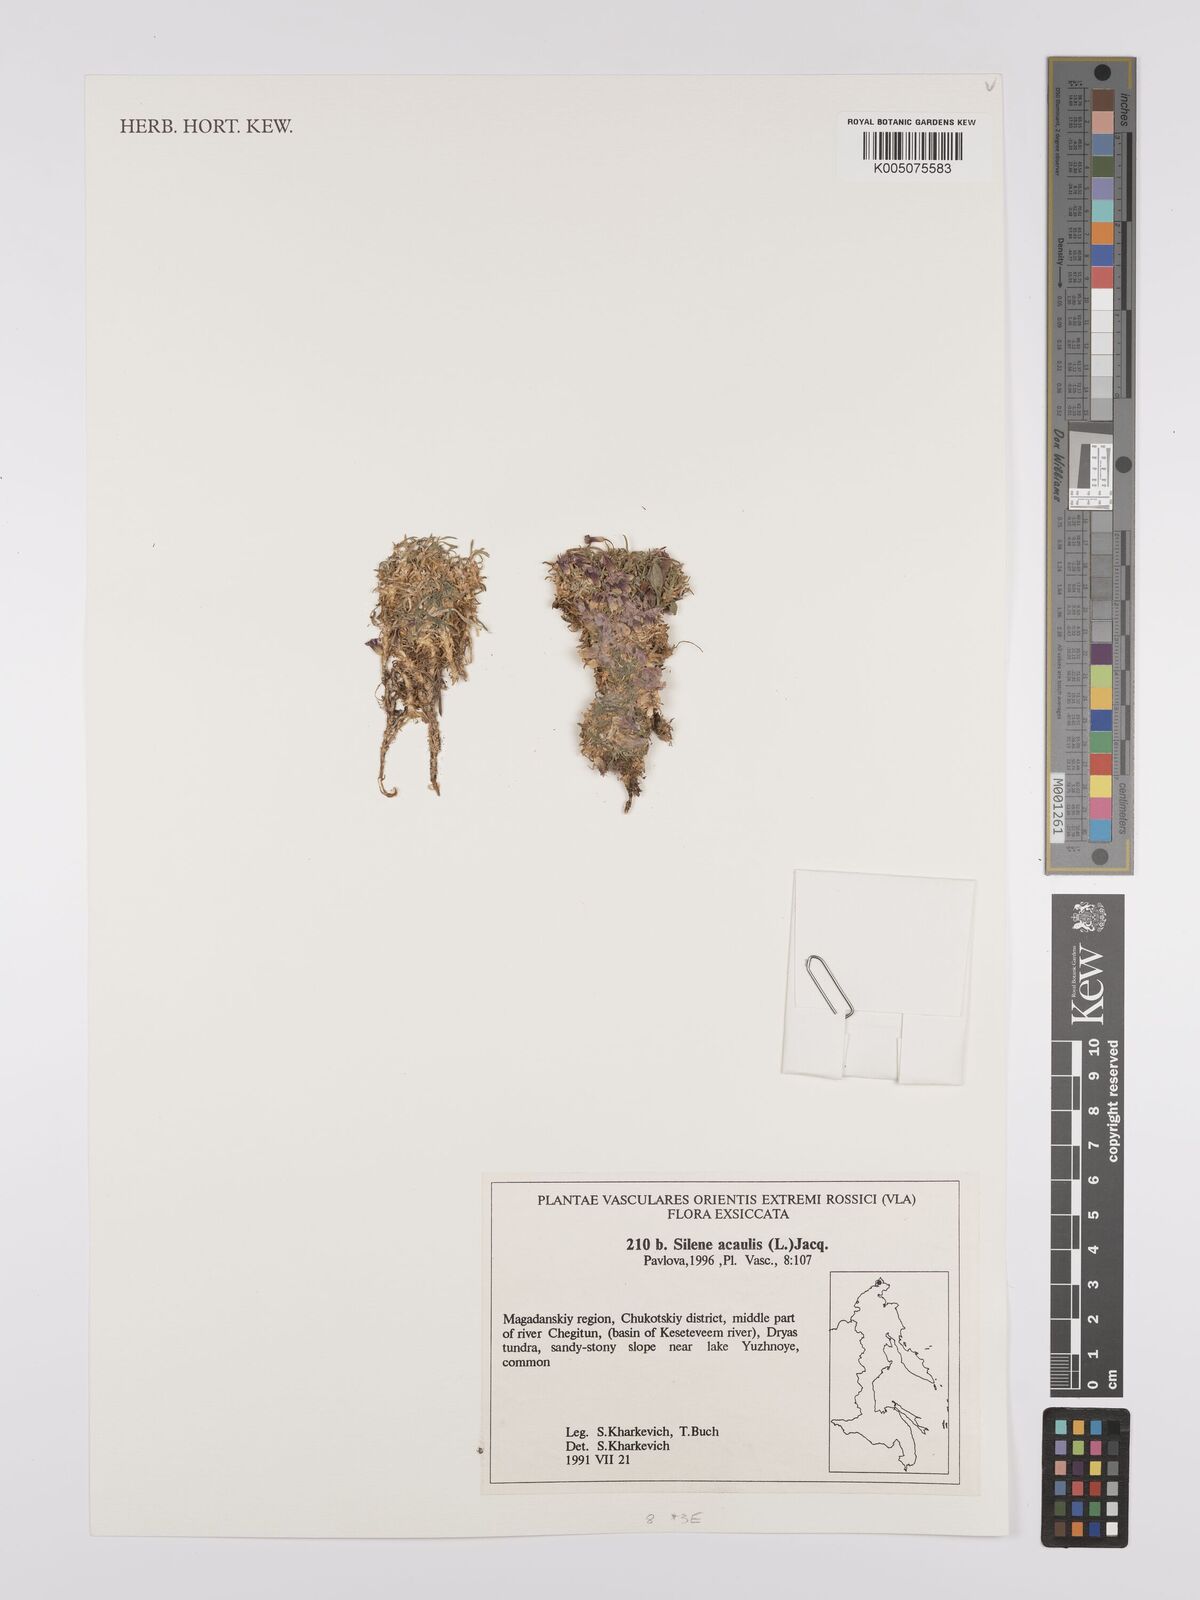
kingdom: Plantae
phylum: Tracheophyta
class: Magnoliopsida
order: Caryophyllales
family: Caryophyllaceae
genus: Silene
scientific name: Silene
